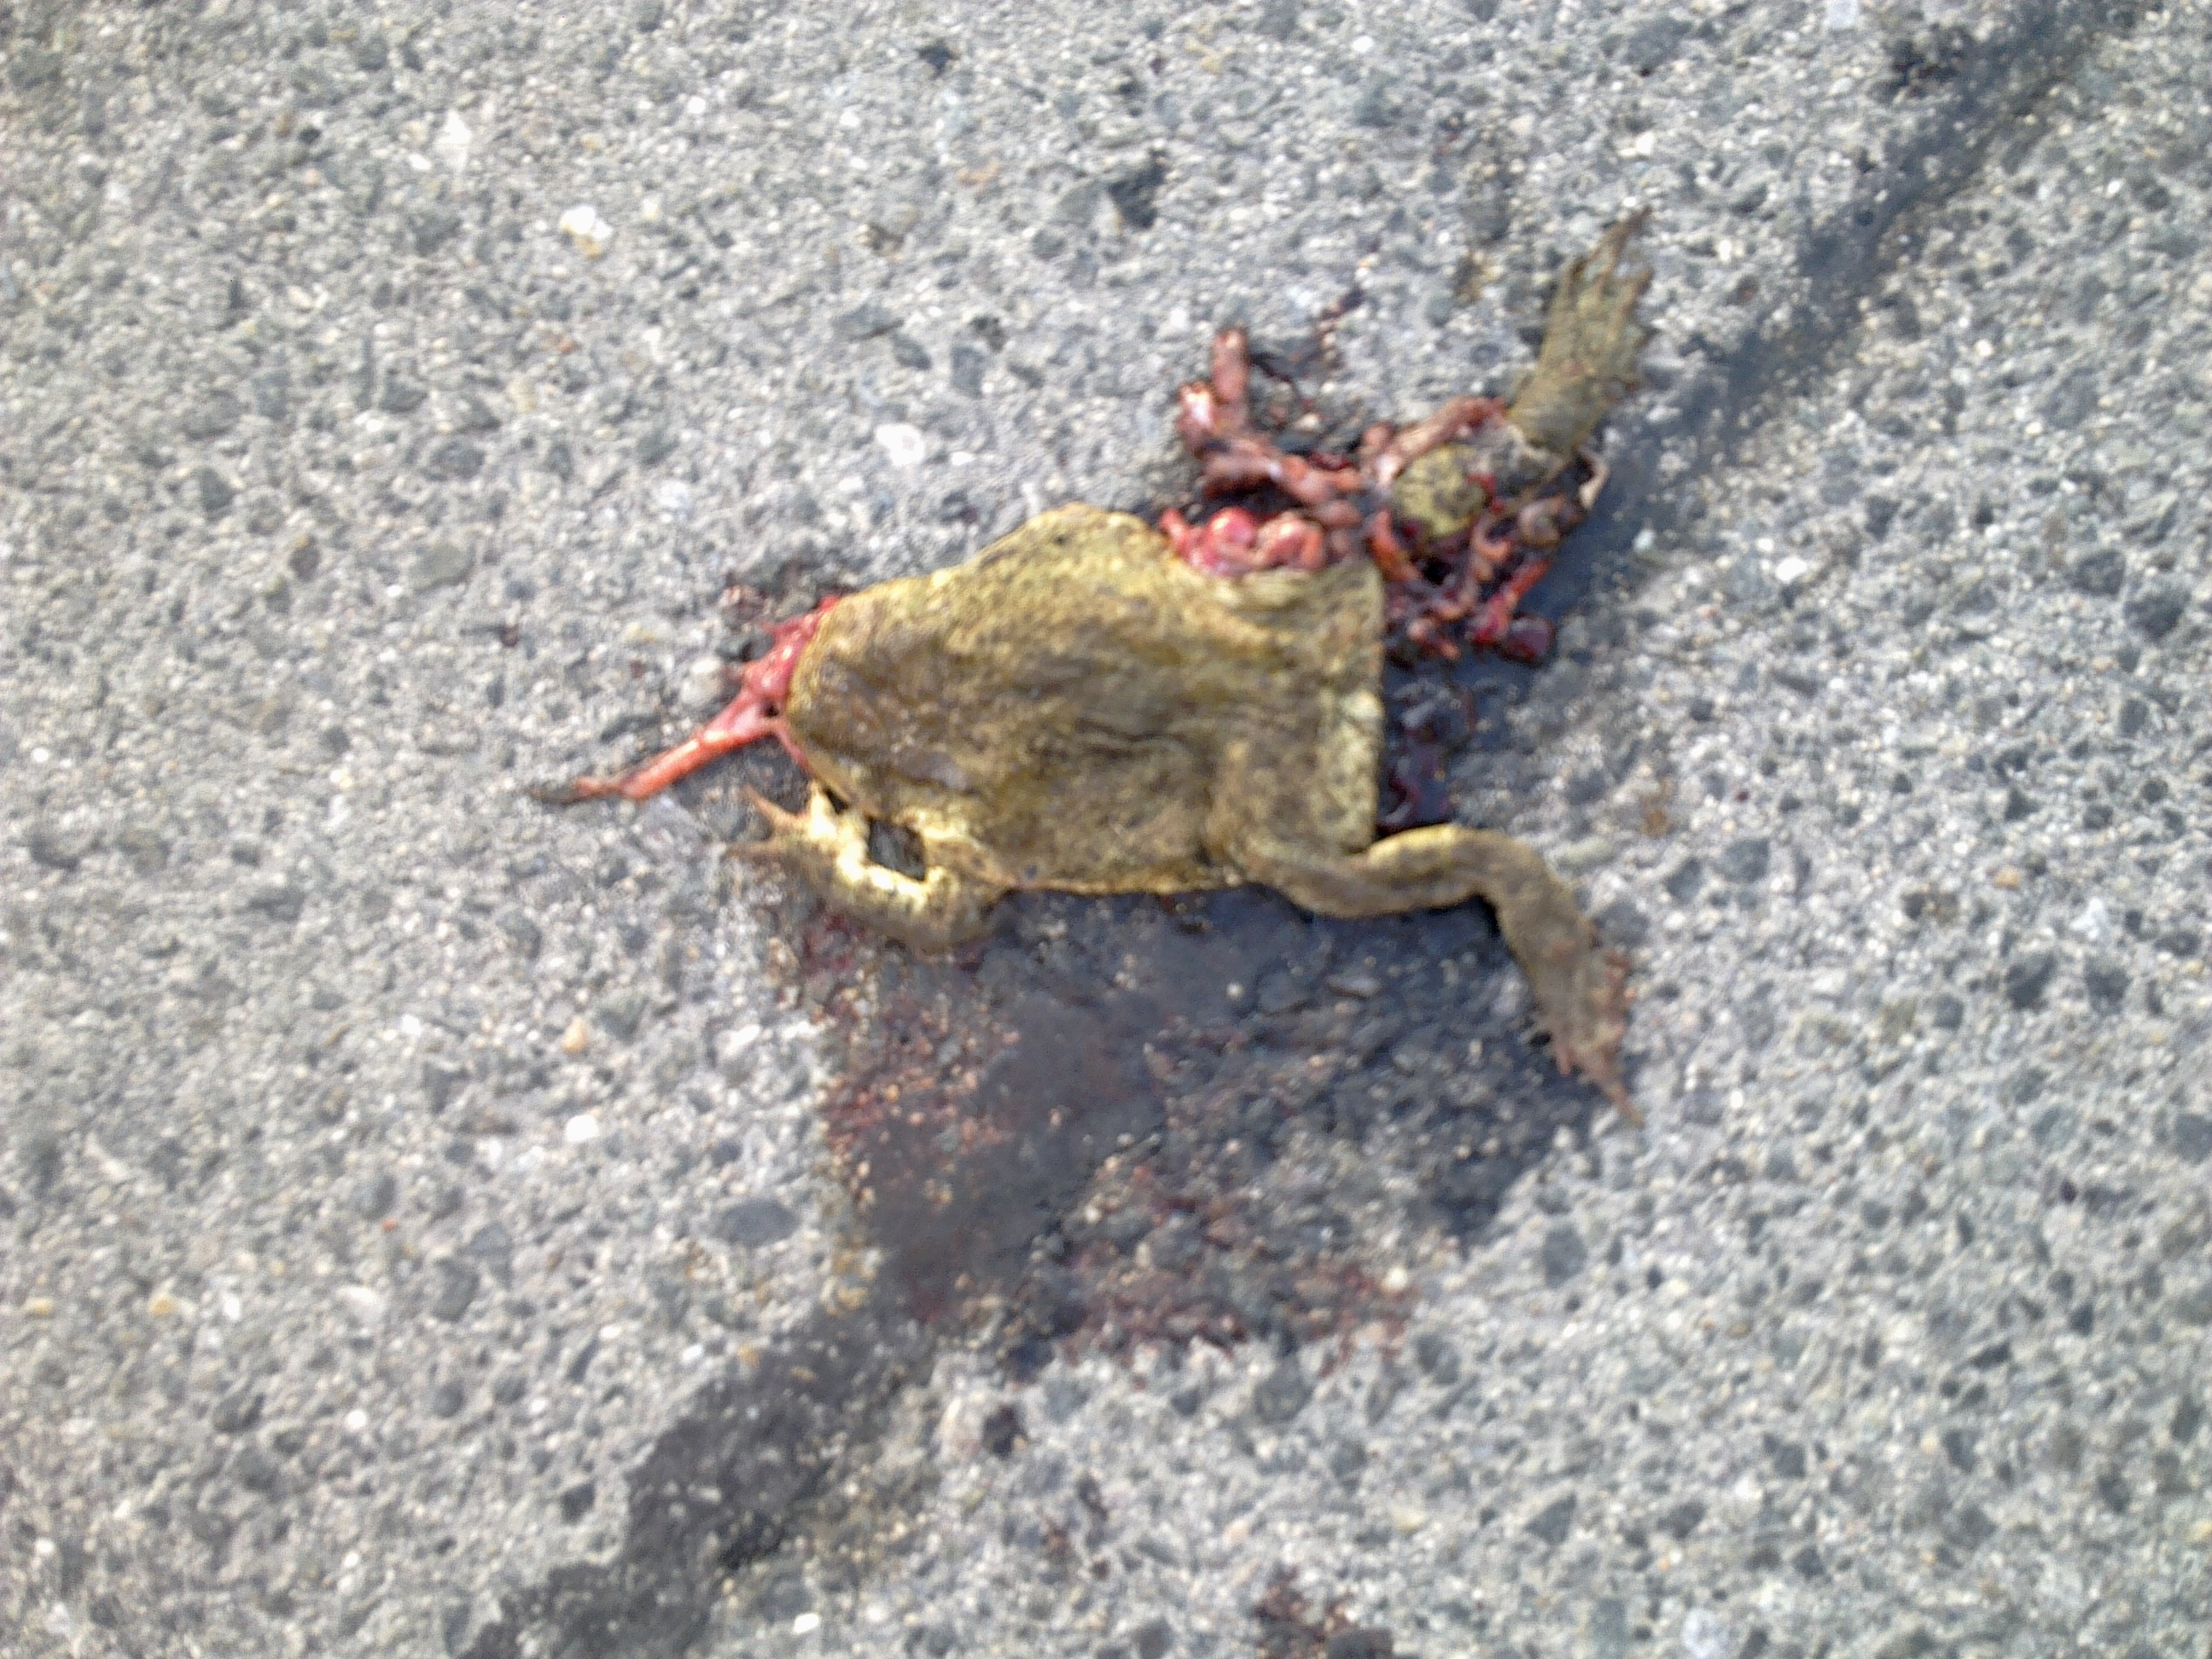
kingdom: Animalia
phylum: Chordata
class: Amphibia
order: Anura
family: Bufonidae
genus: Bufo
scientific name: Bufo bufo
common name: Common toad
